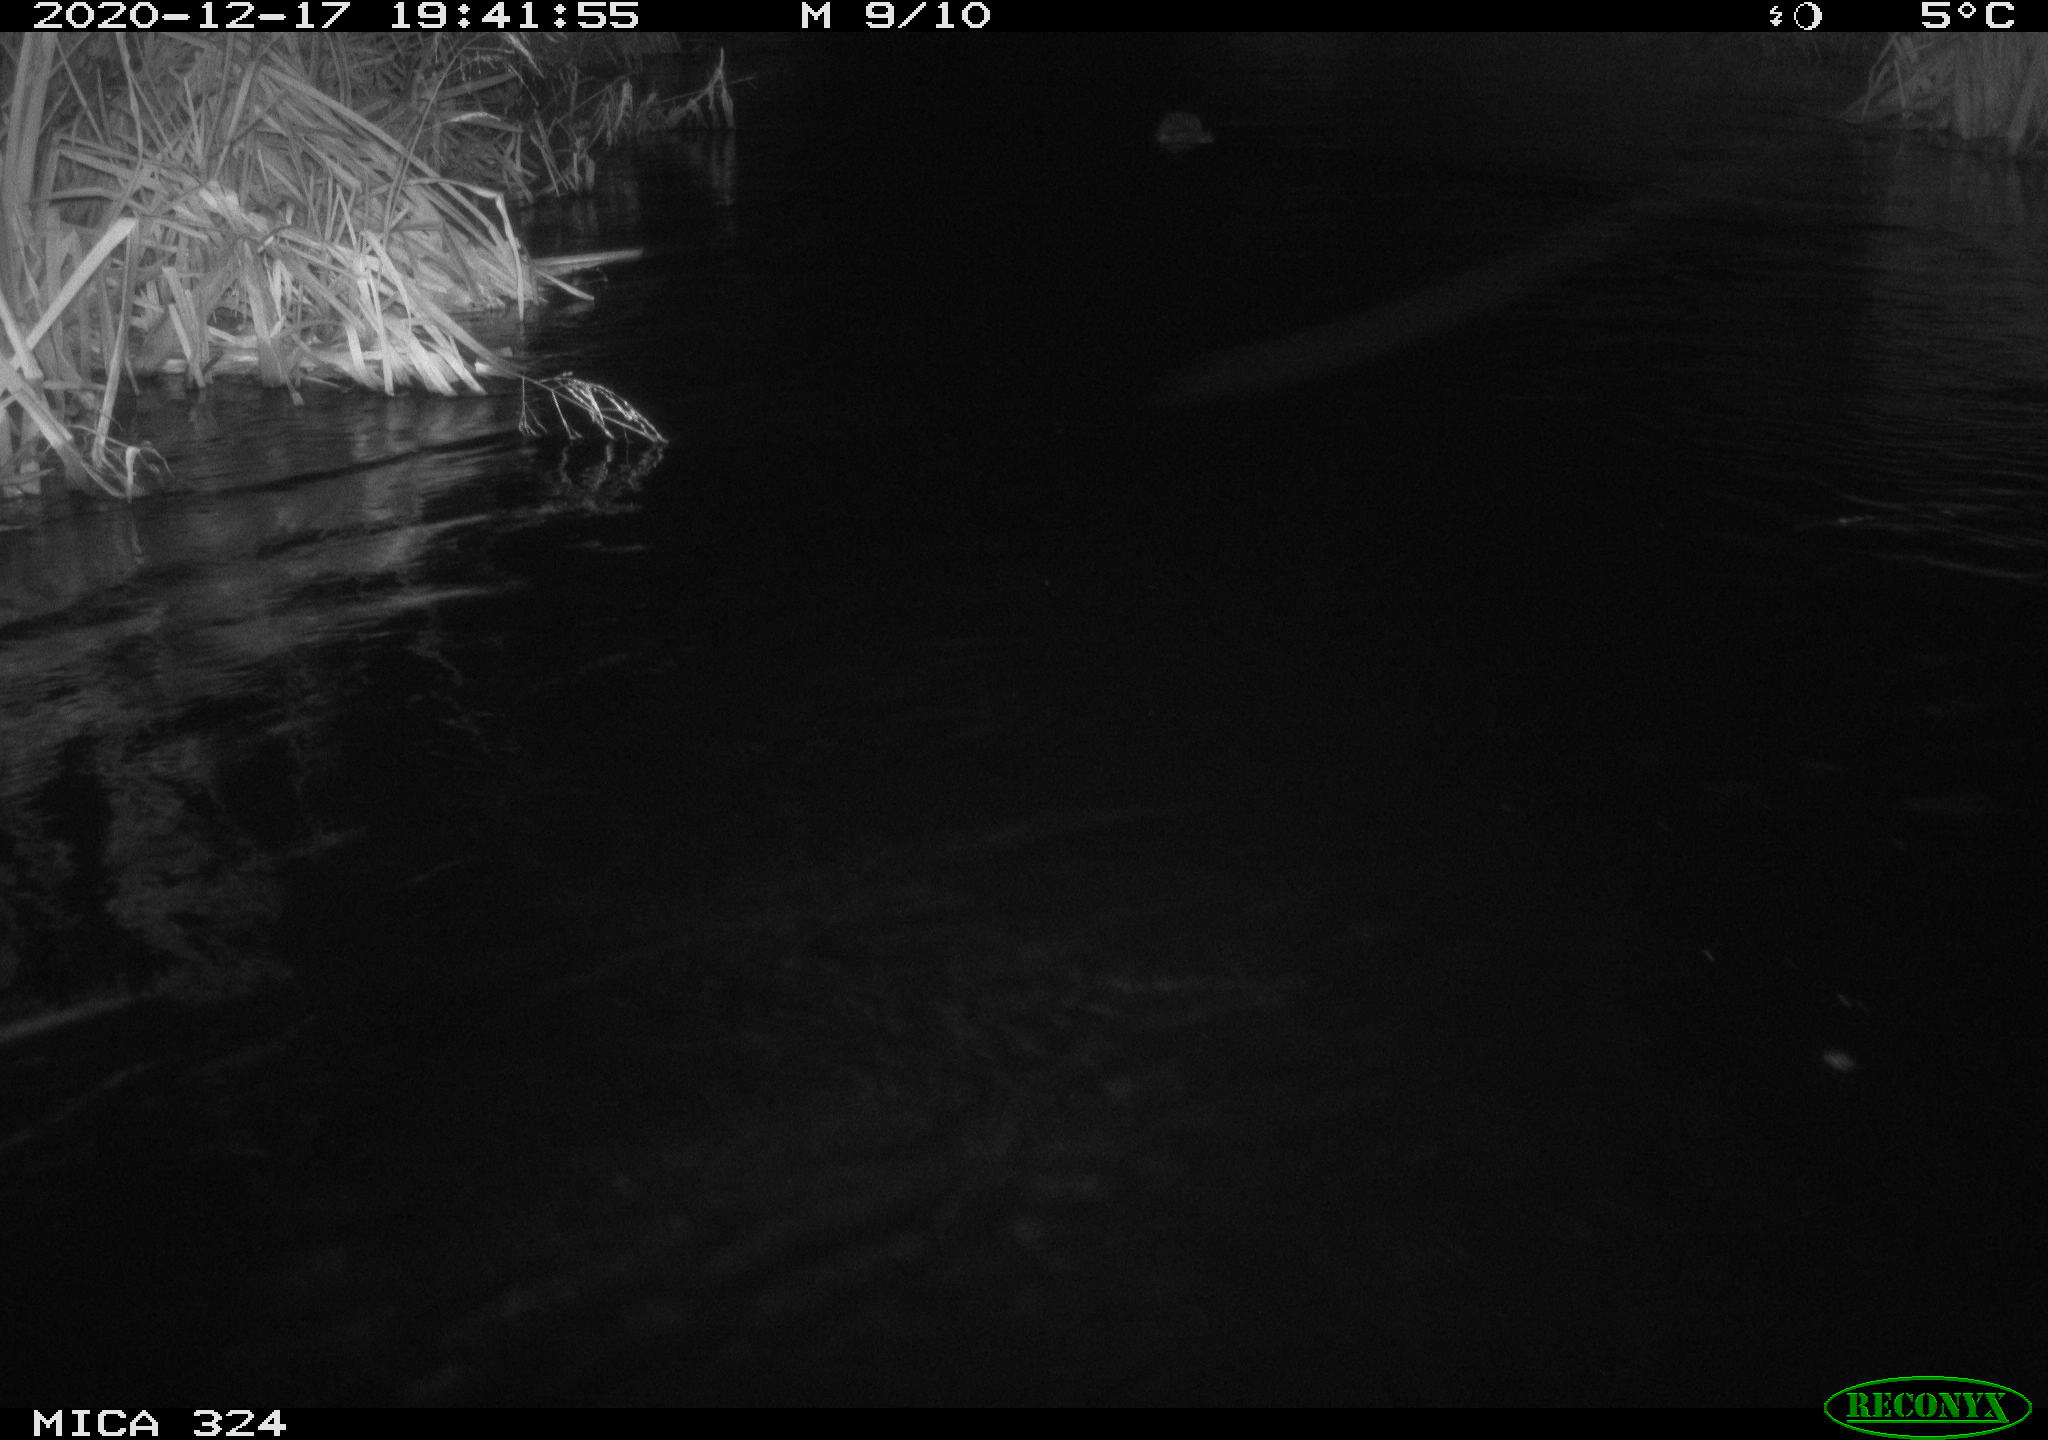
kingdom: Animalia
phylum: Chordata
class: Mammalia
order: Rodentia
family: Cricetidae
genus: Ondatra
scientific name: Ondatra zibethicus
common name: Muskrat
